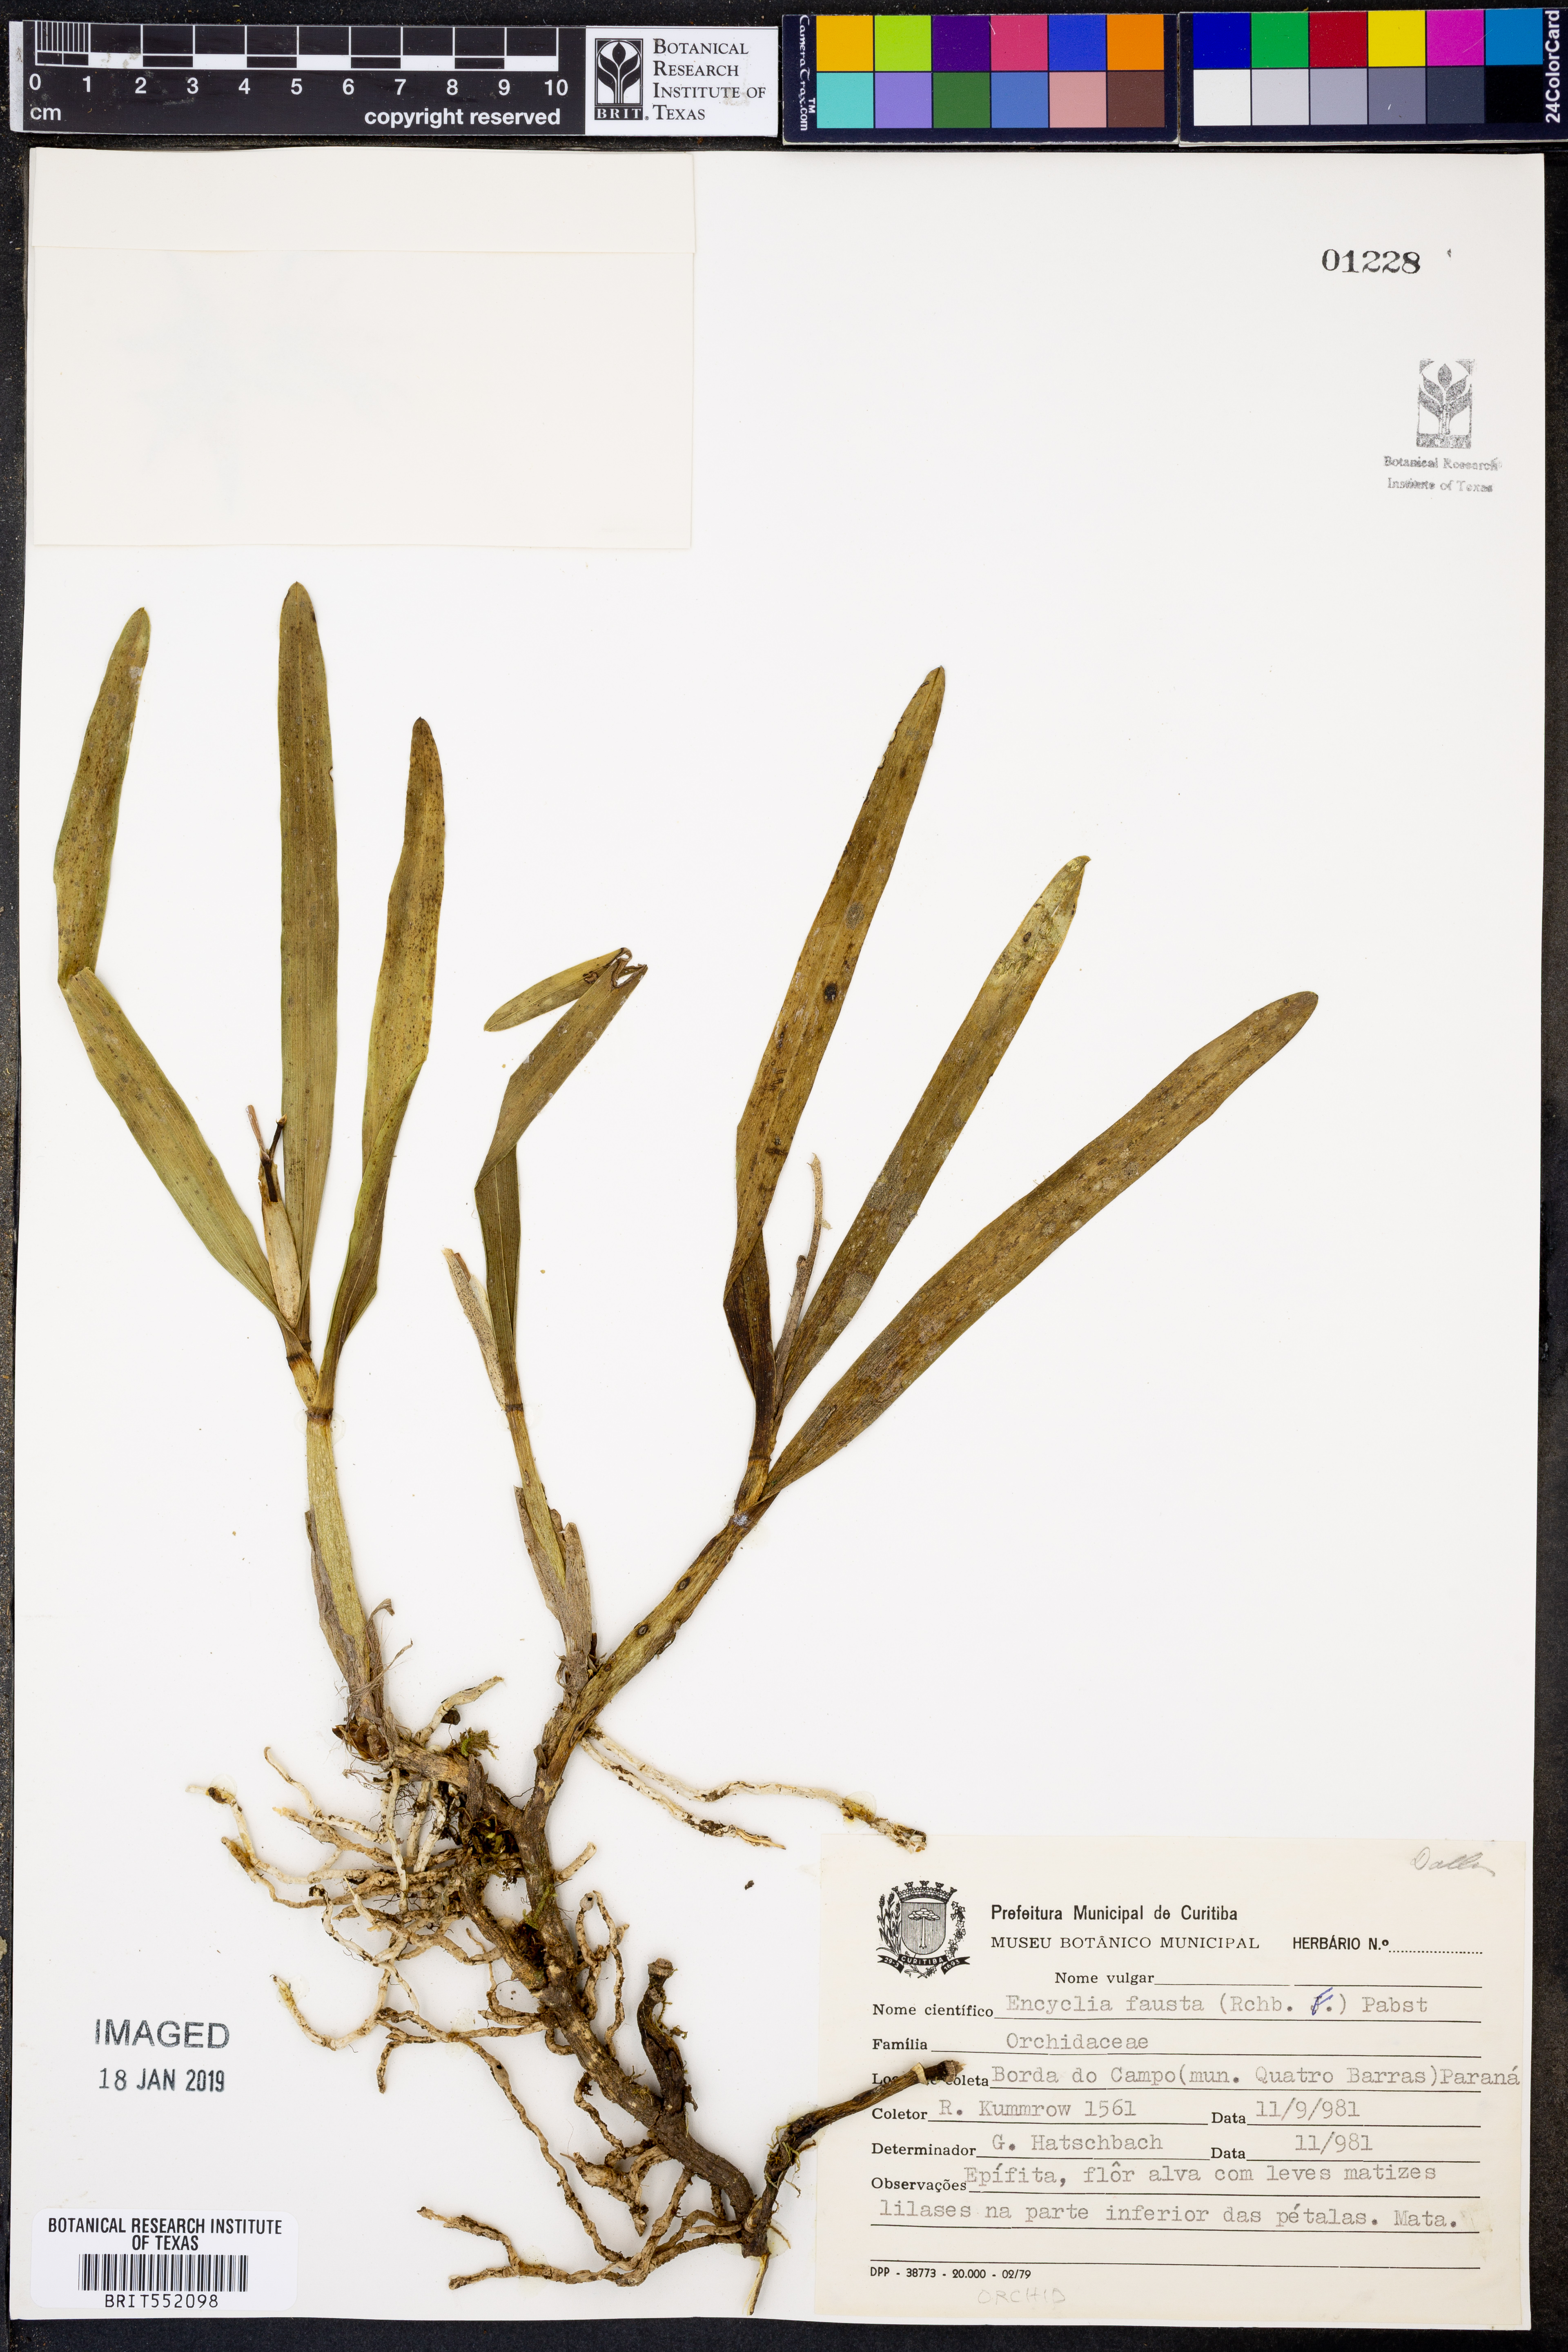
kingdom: Plantae
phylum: Tracheophyta
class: Liliopsida
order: Asparagales
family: Orchidaceae
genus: Prosthechea
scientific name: Prosthechea fausta
